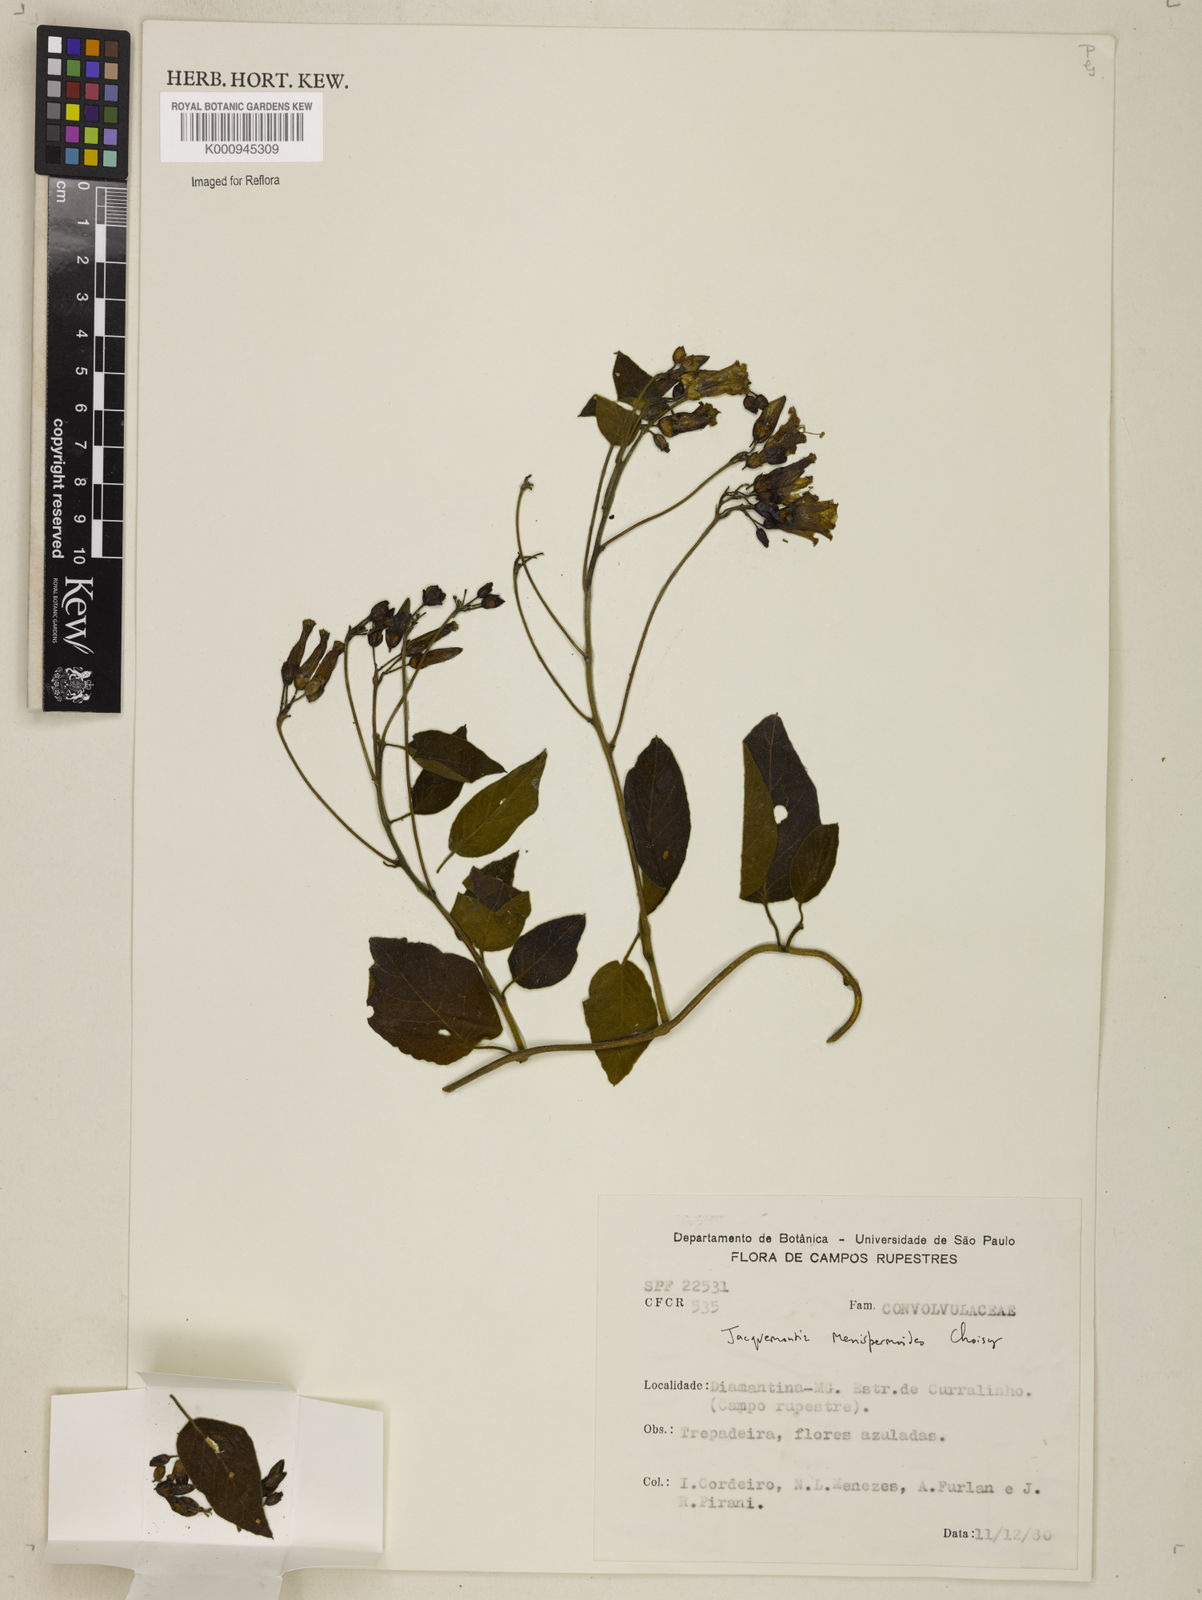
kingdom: Plantae
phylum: Tracheophyta
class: Magnoliopsida
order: Solanales
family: Convolvulaceae
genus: Jacquemontia
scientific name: Jacquemontia holosericea
